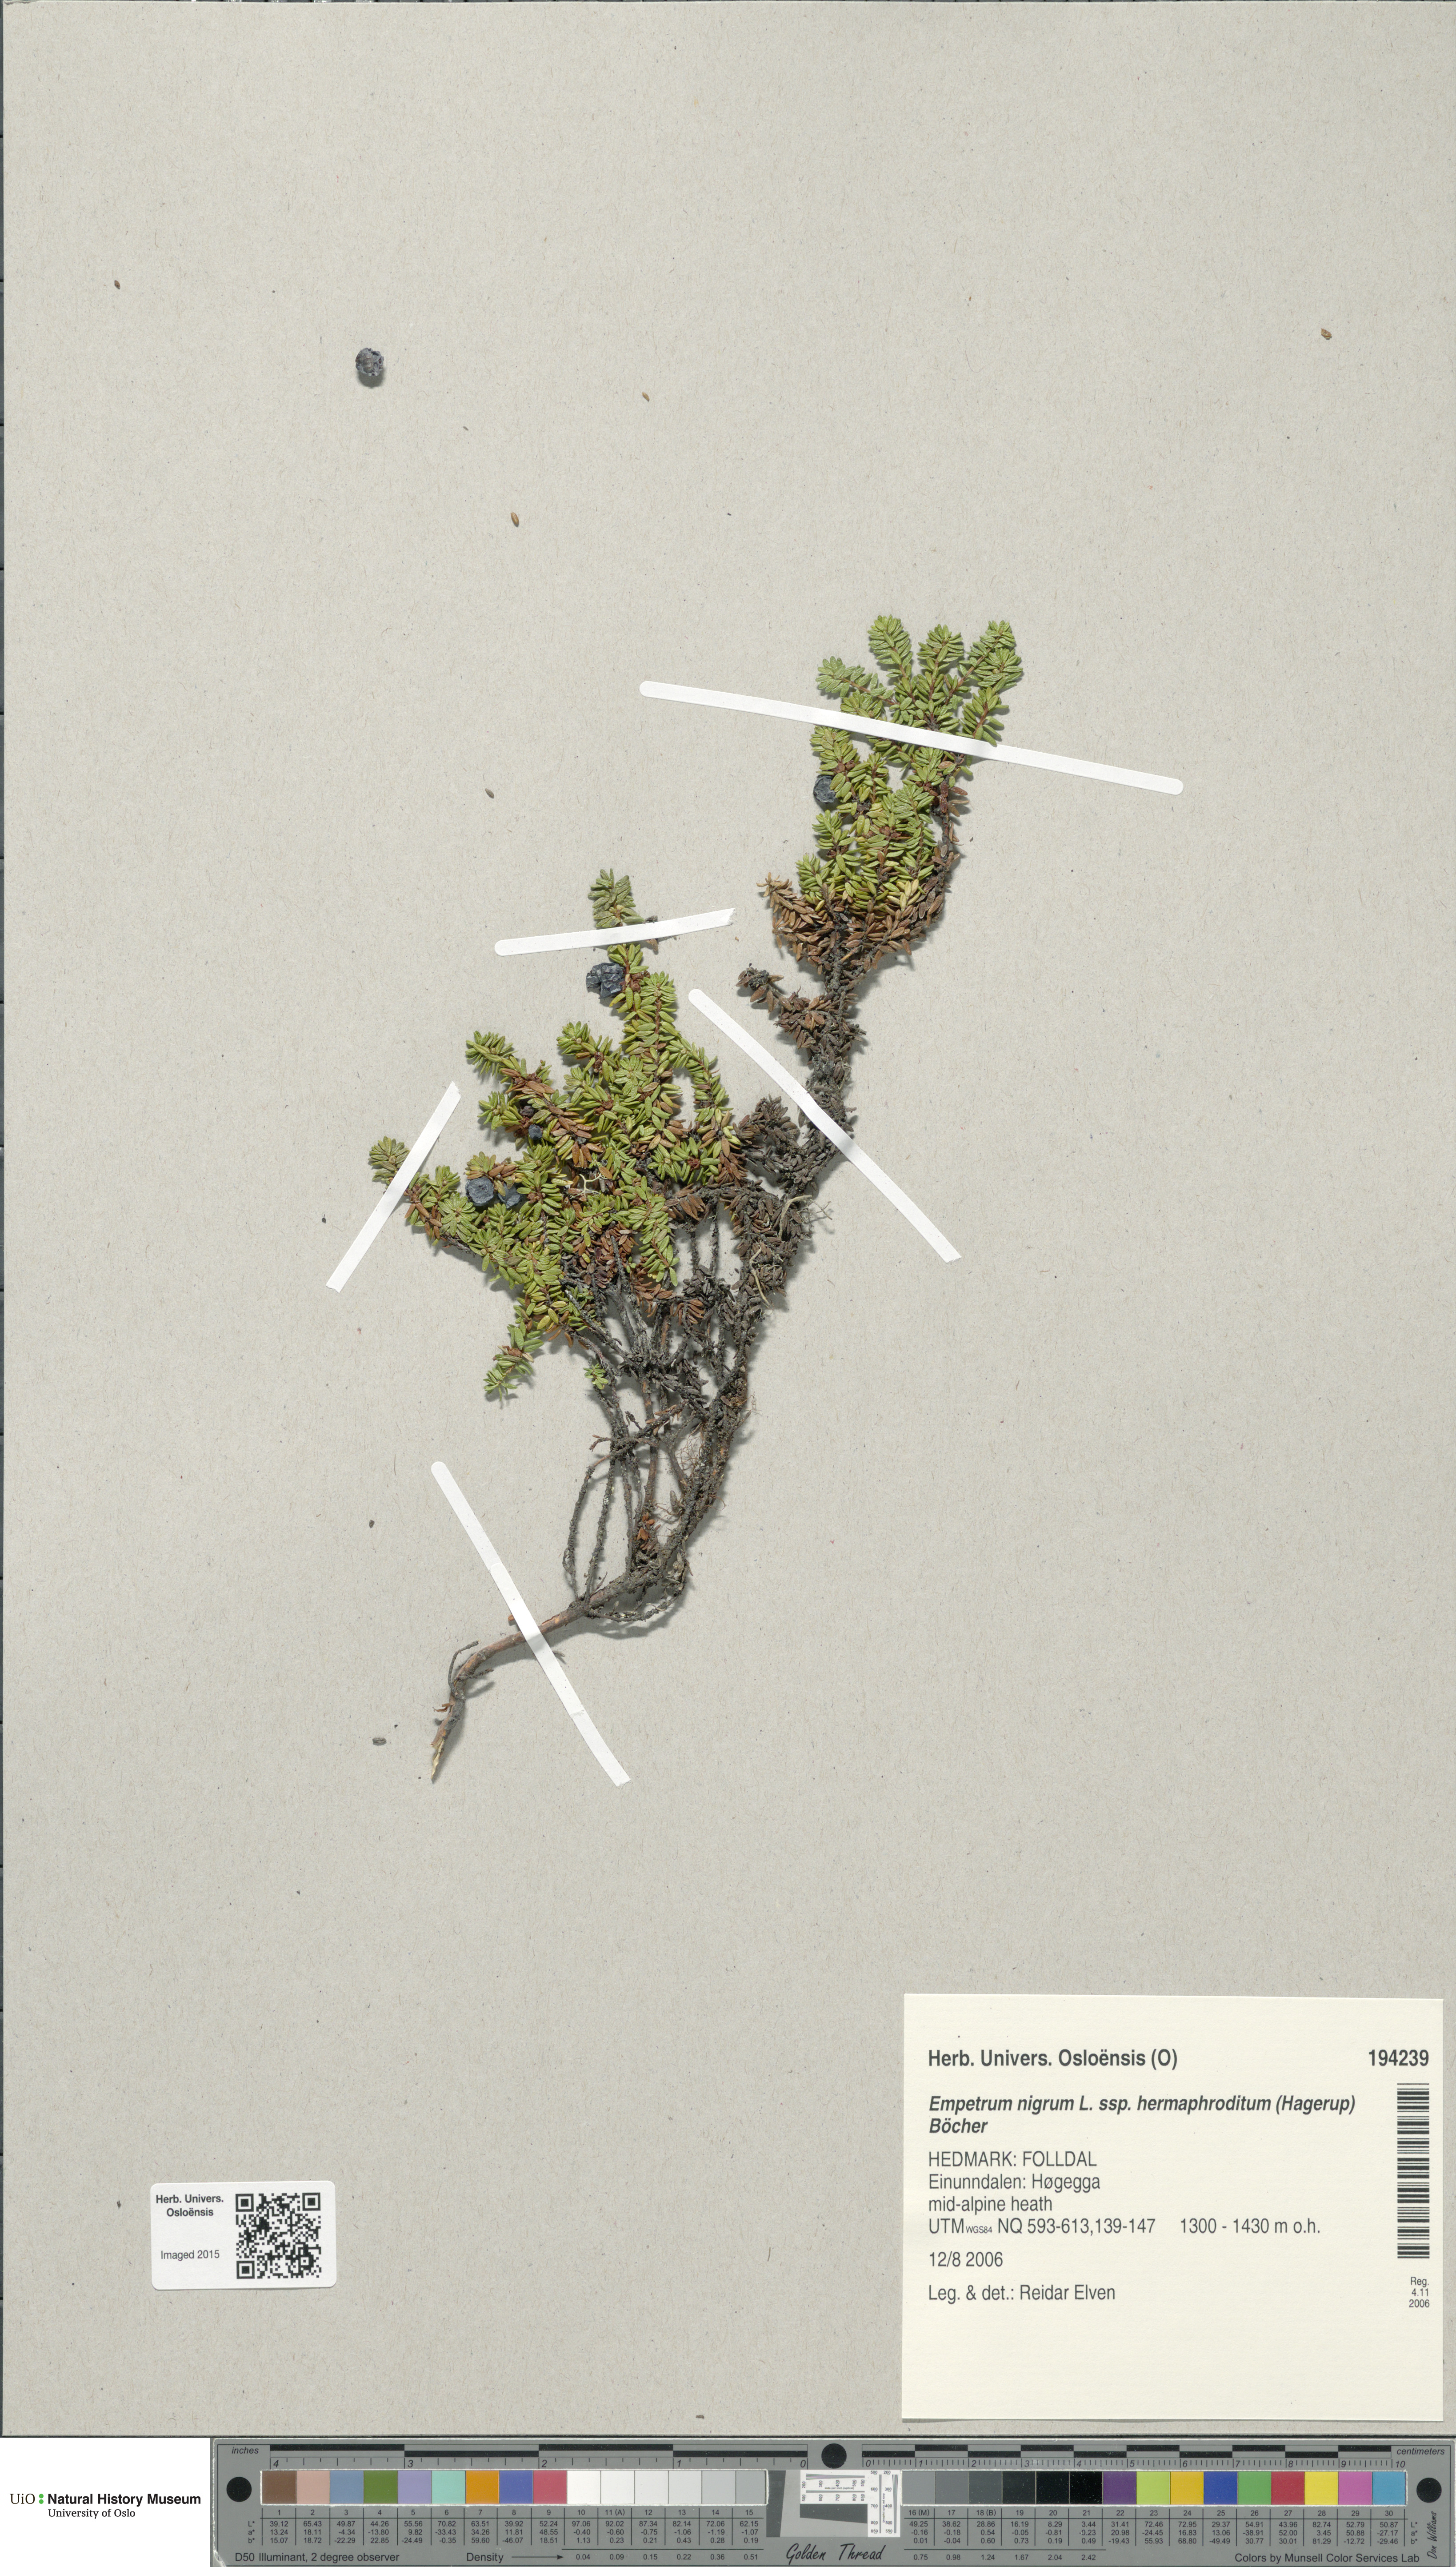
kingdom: Plantae
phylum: Tracheophyta
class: Magnoliopsida
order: Ericales
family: Ericaceae
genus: Empetrum
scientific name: Empetrum hermaphroditum
